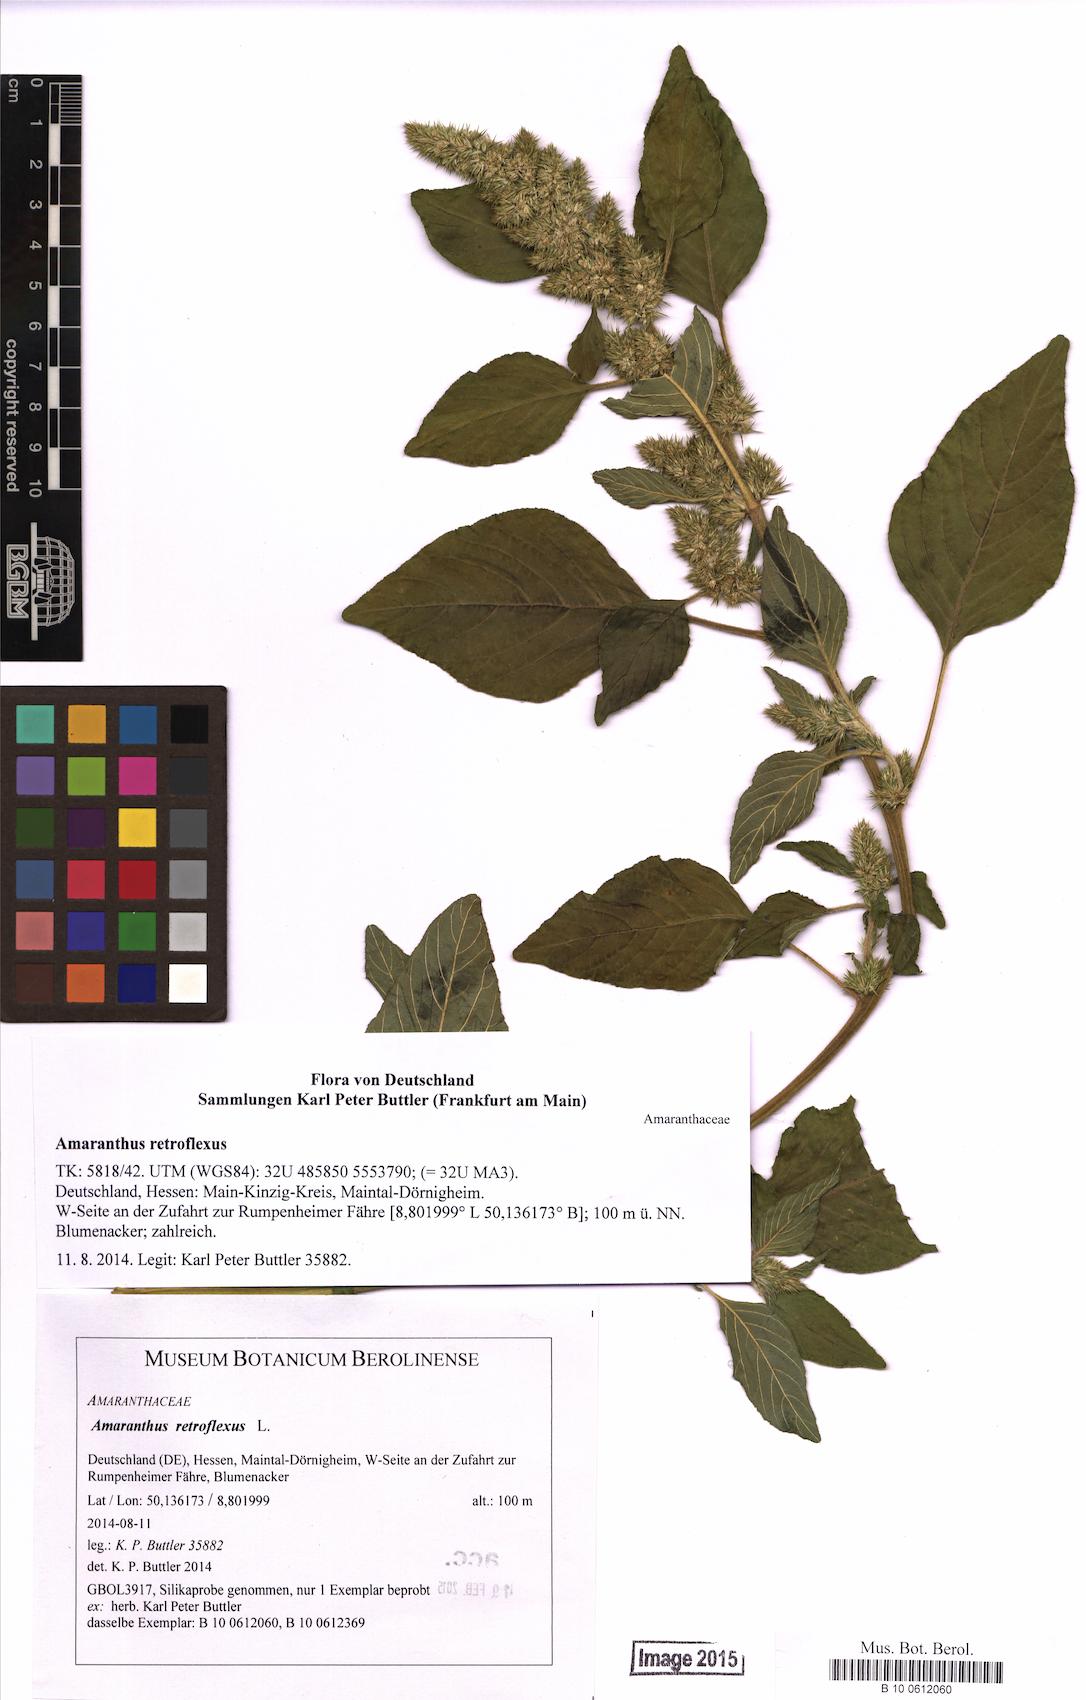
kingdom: Plantae
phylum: Tracheophyta
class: Magnoliopsida
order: Caryophyllales
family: Amaranthaceae
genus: Amaranthus
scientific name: Amaranthus retroflexus
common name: Redroot amaranth
